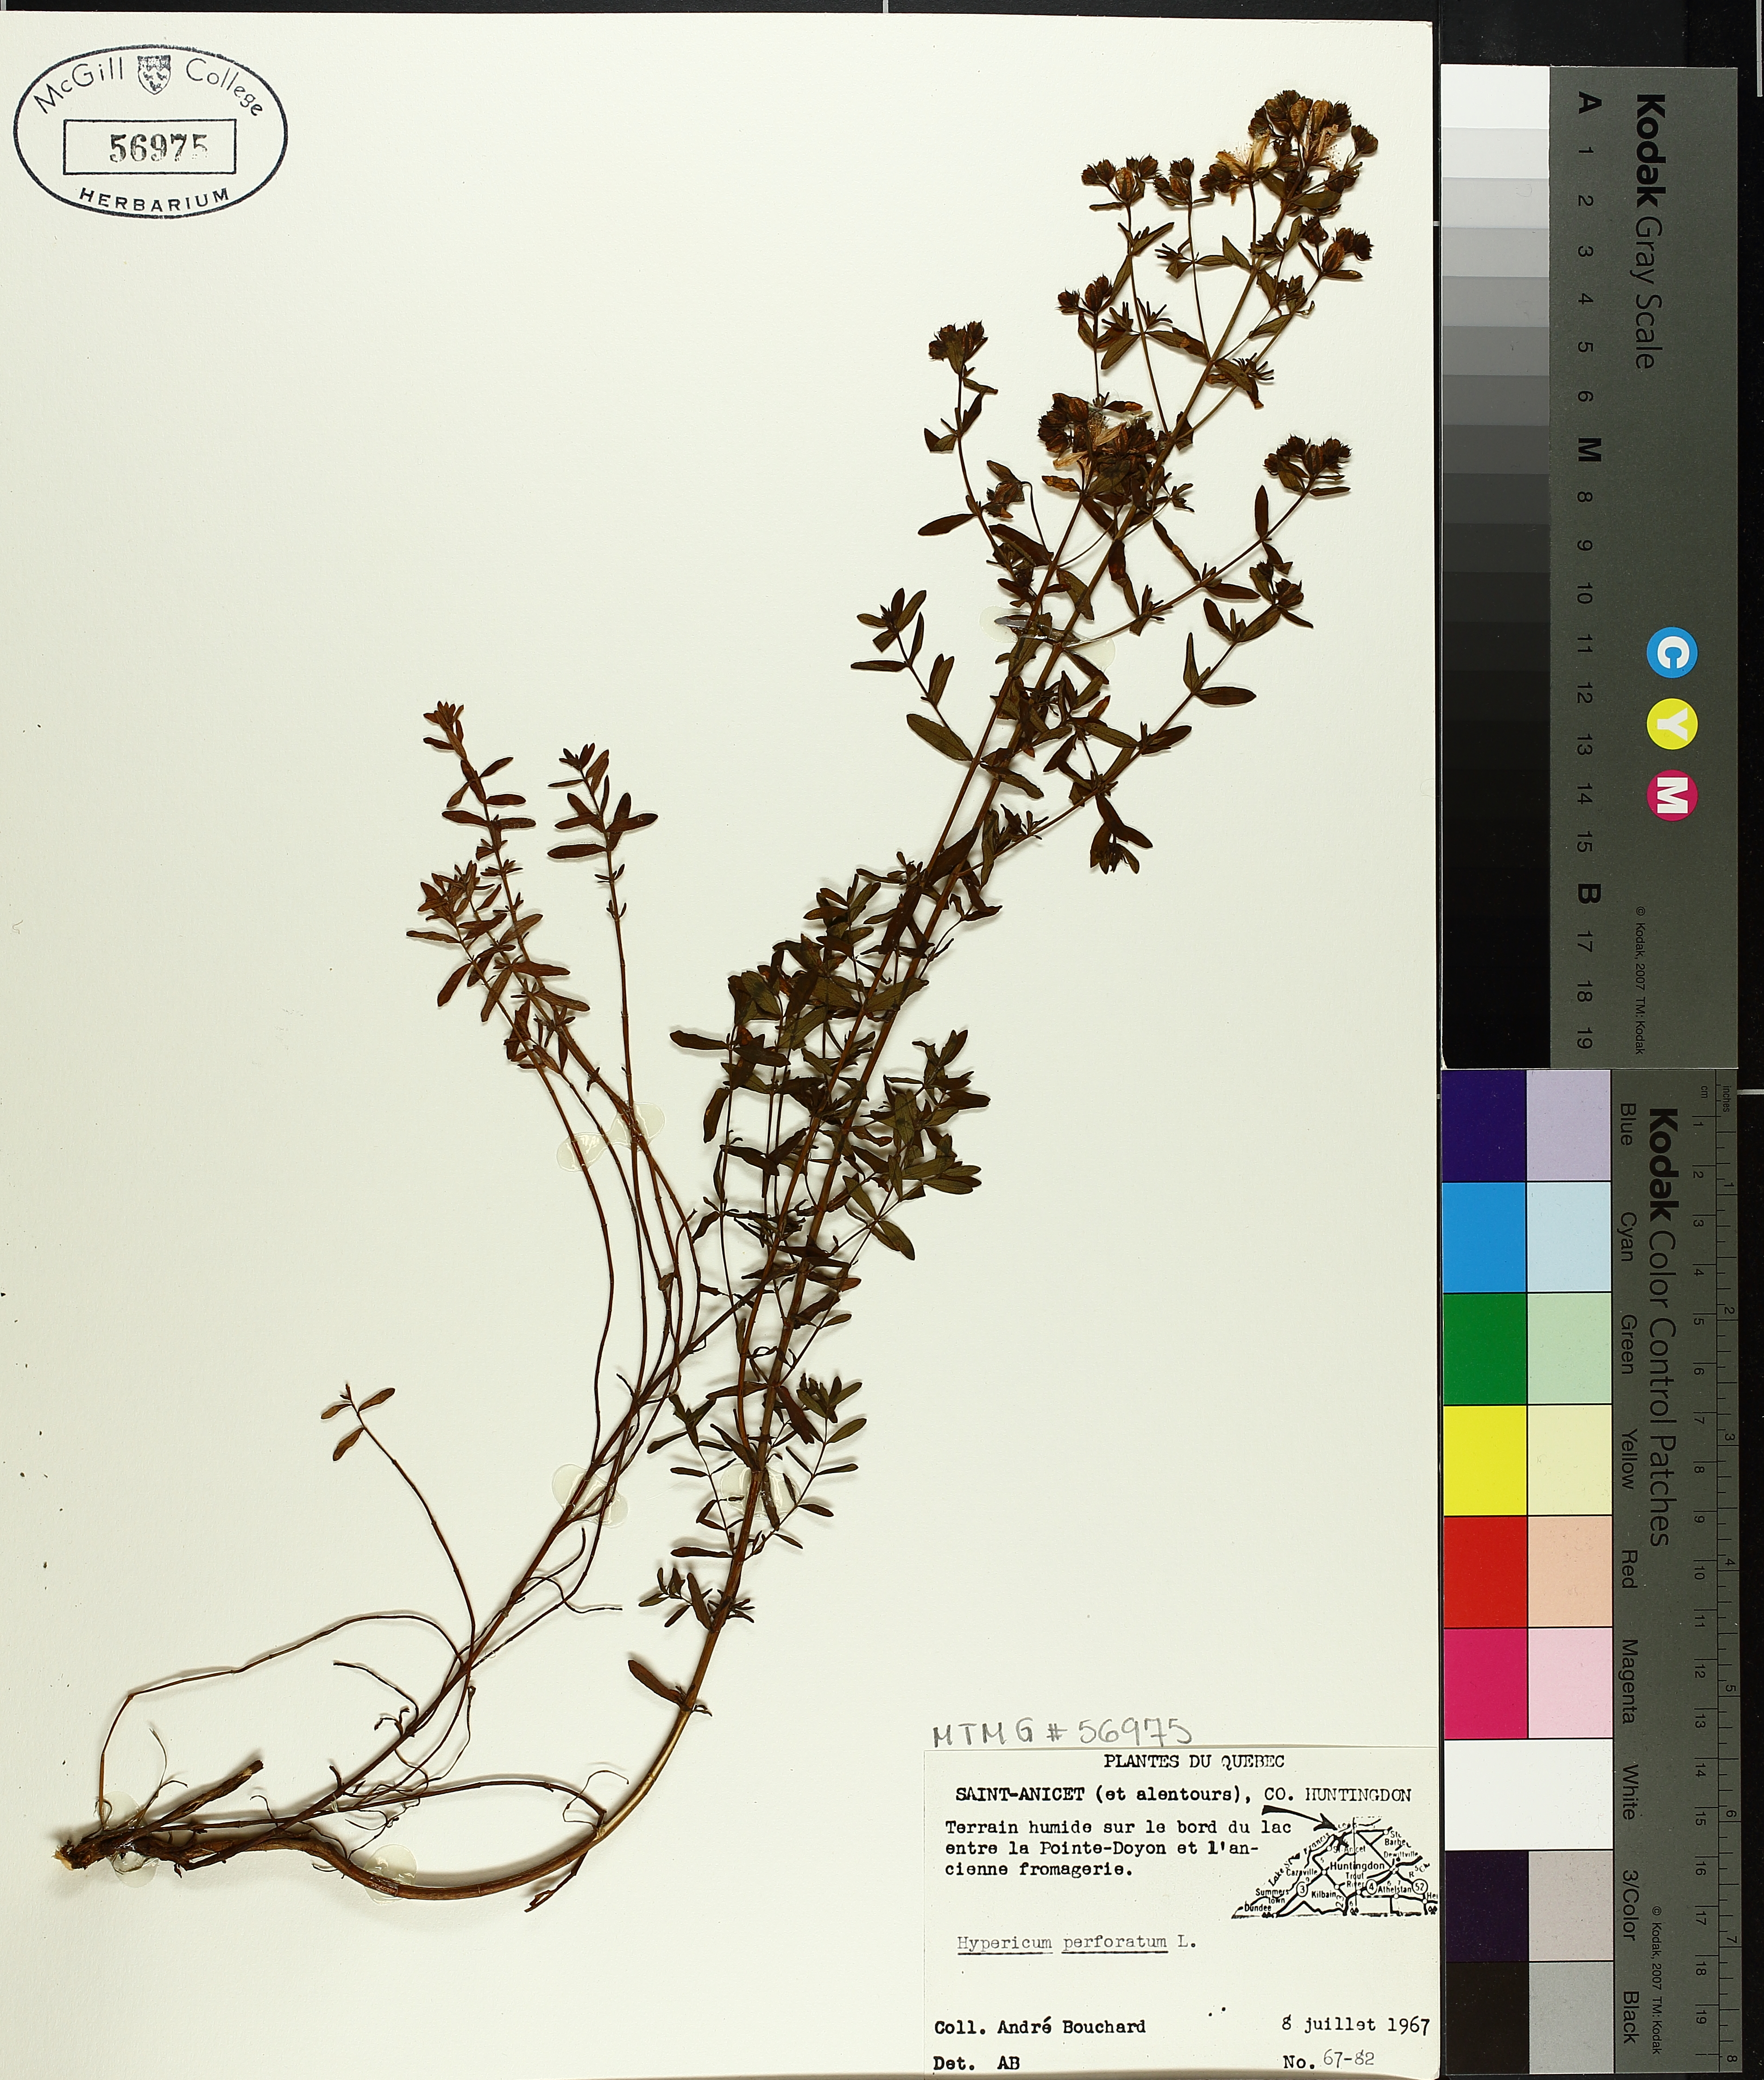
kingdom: Plantae
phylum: Tracheophyta
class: Magnoliopsida
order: Malpighiales
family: Hypericaceae
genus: Hypericum
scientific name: Hypericum perforatum
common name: Common st. johnswort
